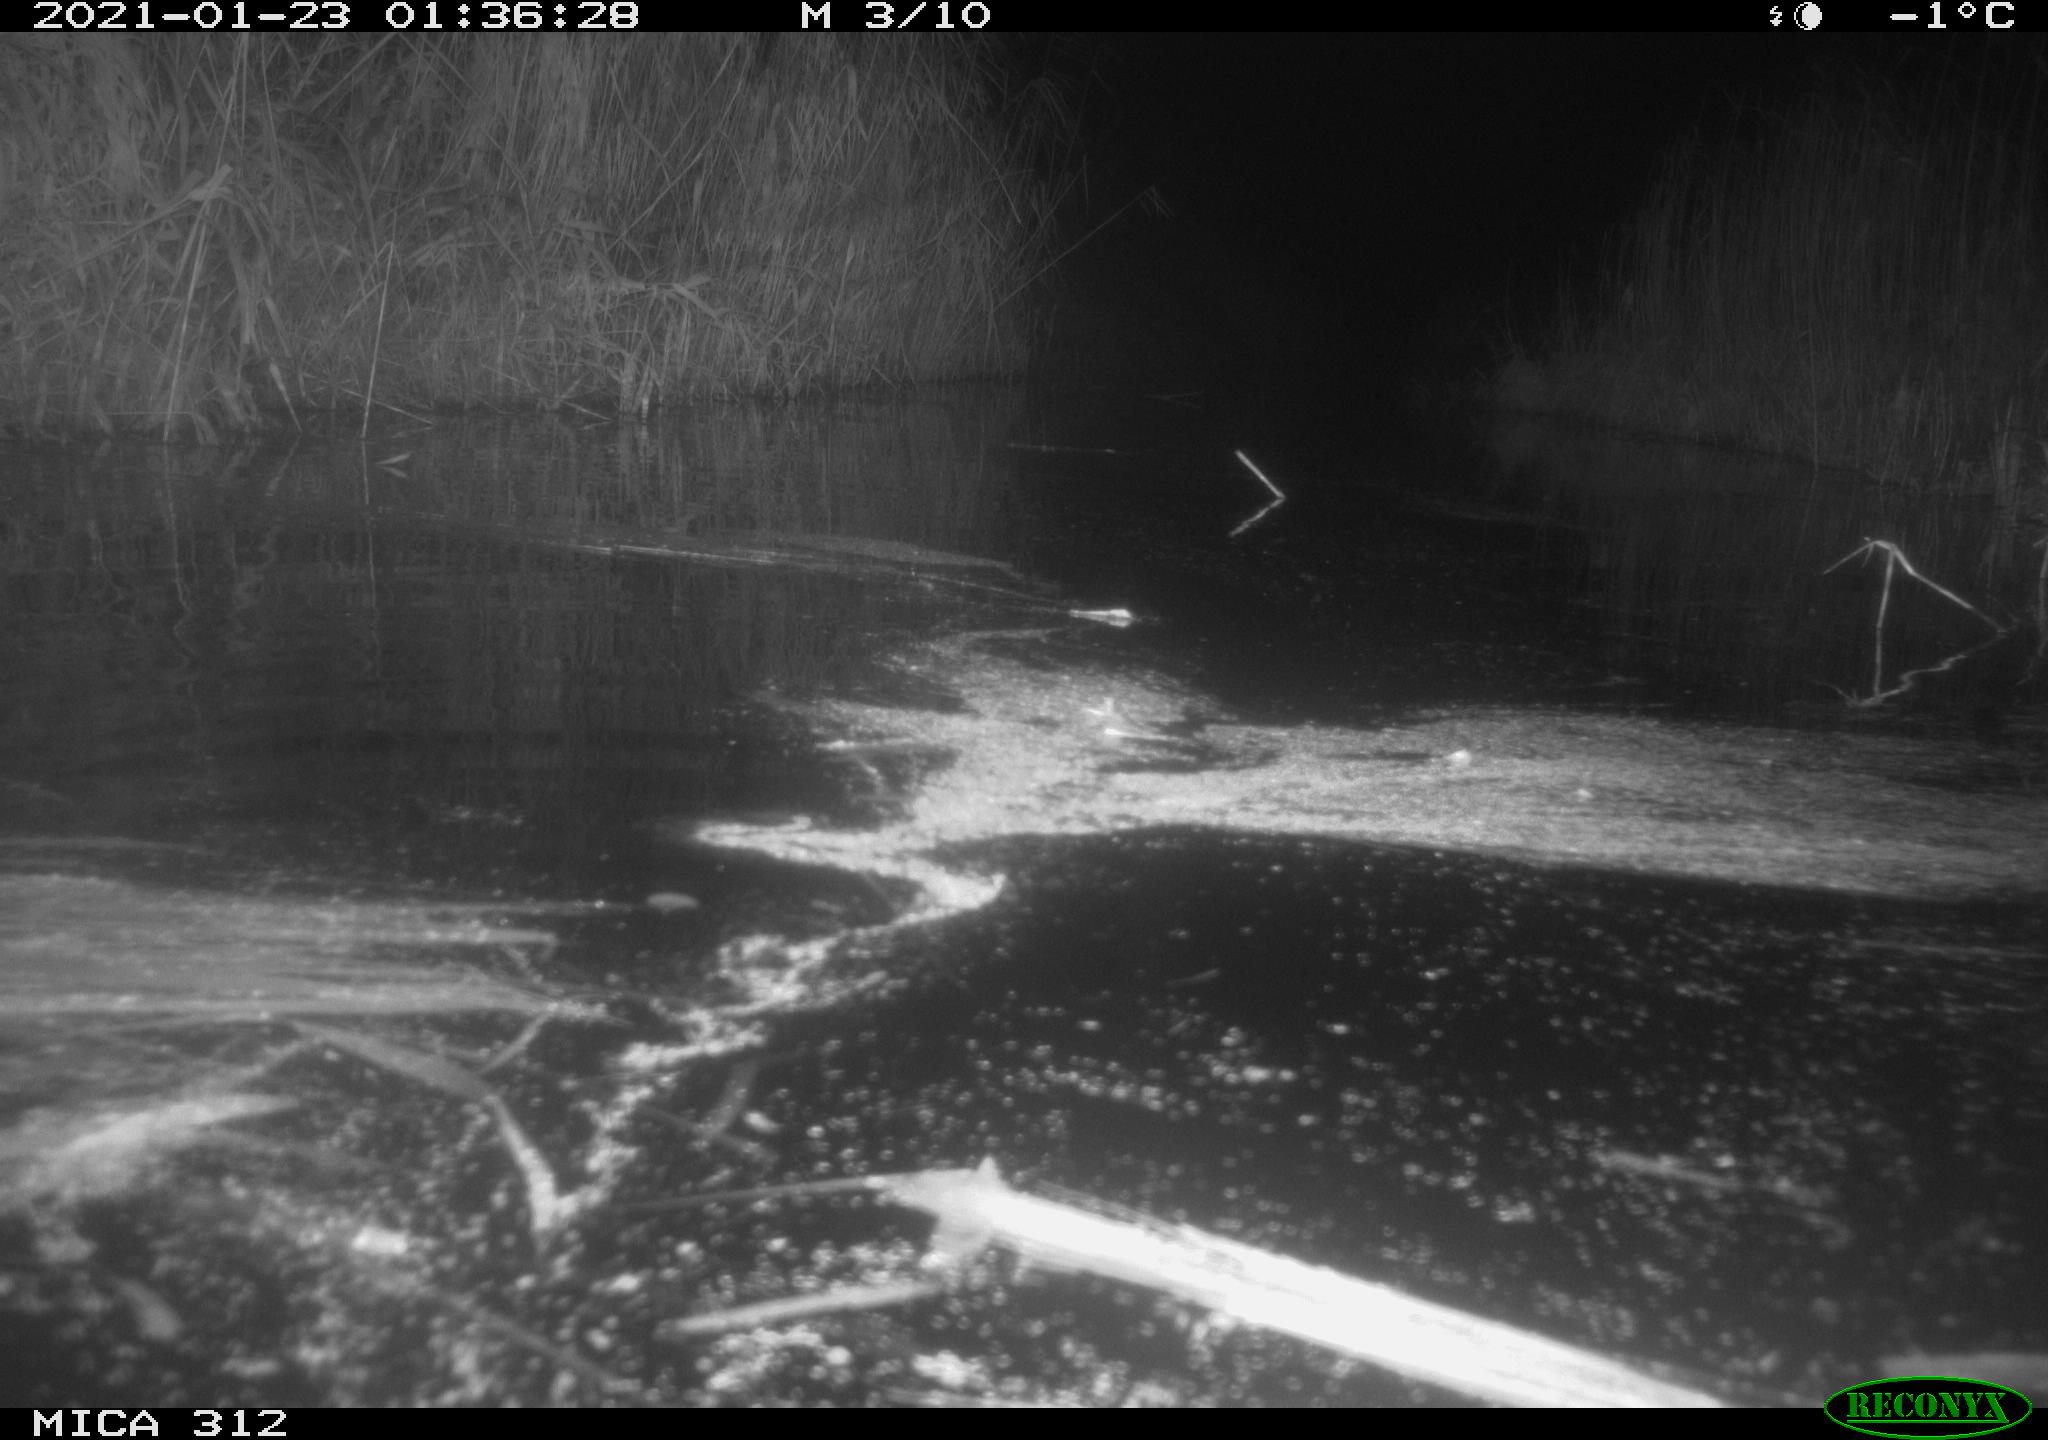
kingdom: Animalia
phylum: Chordata
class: Mammalia
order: Rodentia
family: Muridae
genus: Rattus
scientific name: Rattus norvegicus
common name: Brown rat
